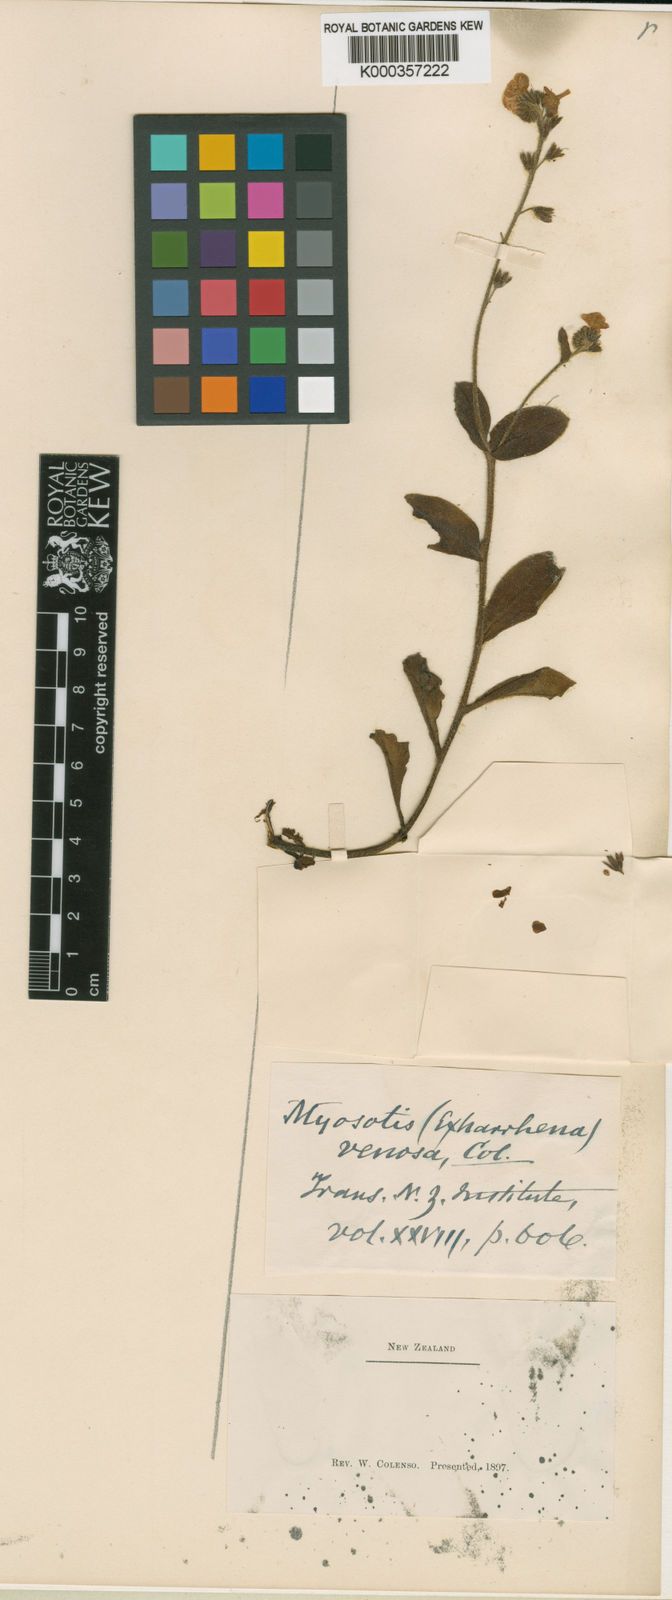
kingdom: Plantae
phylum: Tracheophyta
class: Magnoliopsida
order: Boraginales
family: Boraginaceae
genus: Myosotis
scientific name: Myosotis forsteri
